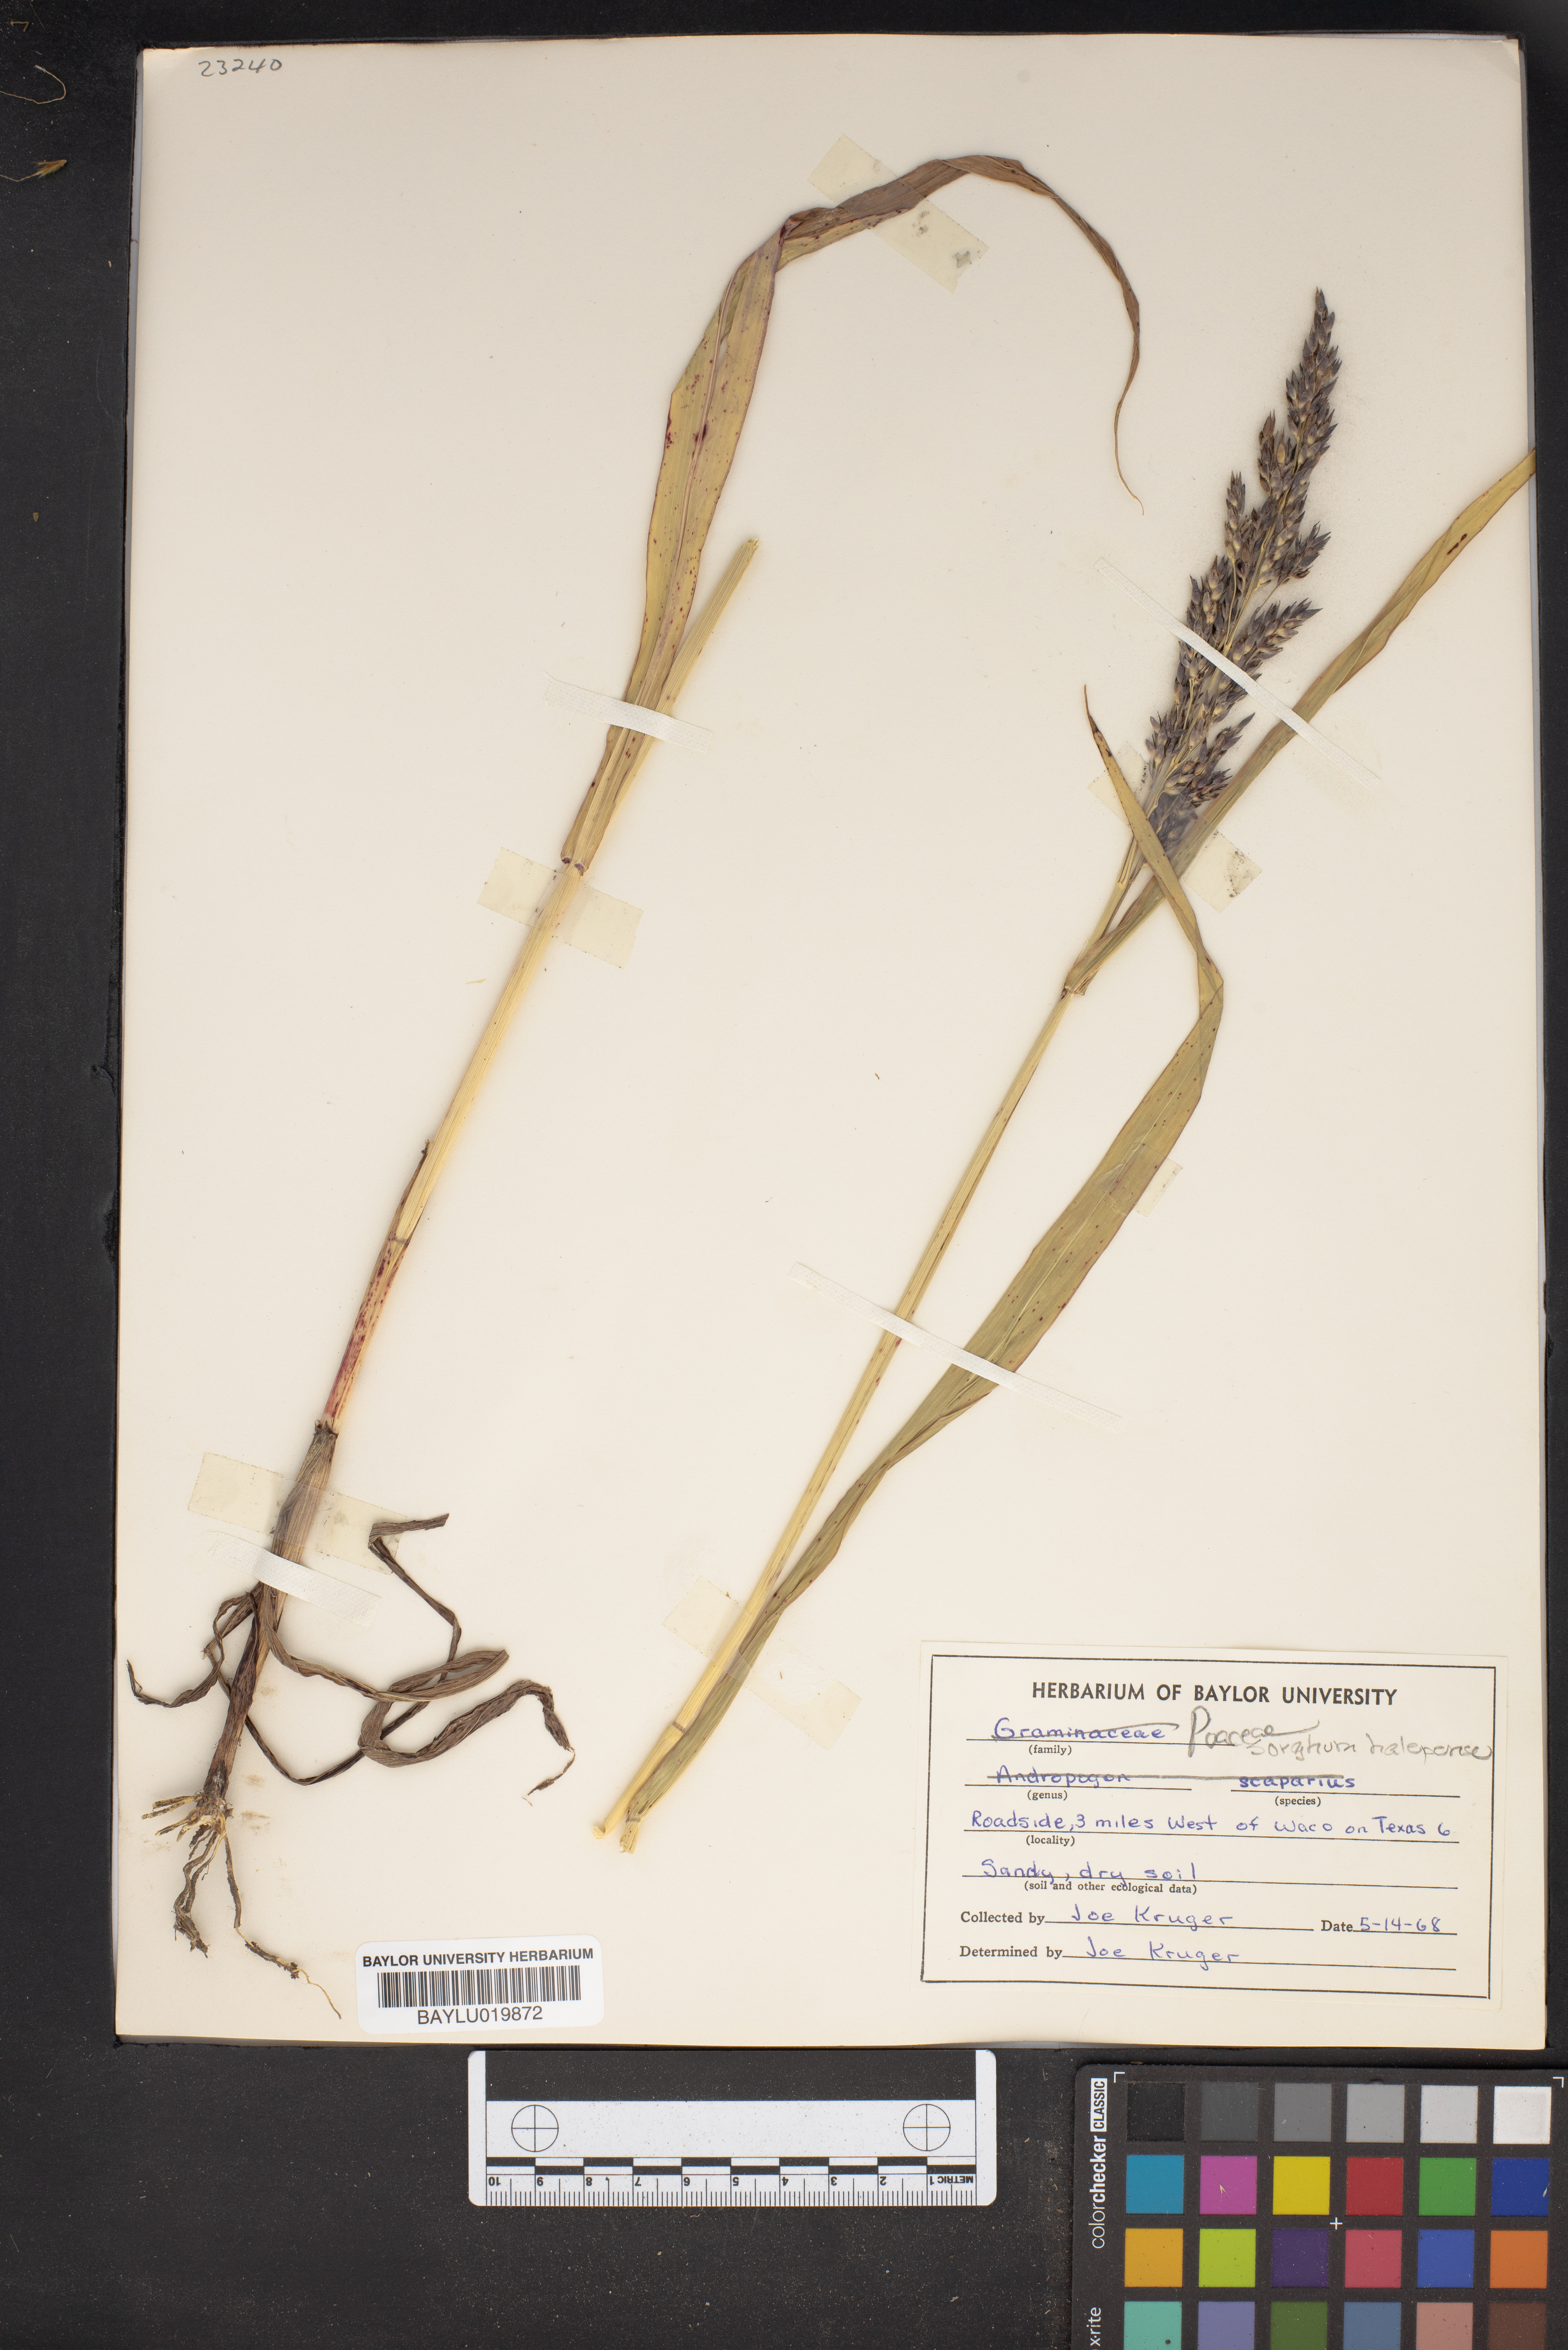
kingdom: Plantae
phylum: Tracheophyta
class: Liliopsida
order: Poales
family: Poaceae
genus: Sorghum
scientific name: Sorghum halepense
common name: Johnson-grass
